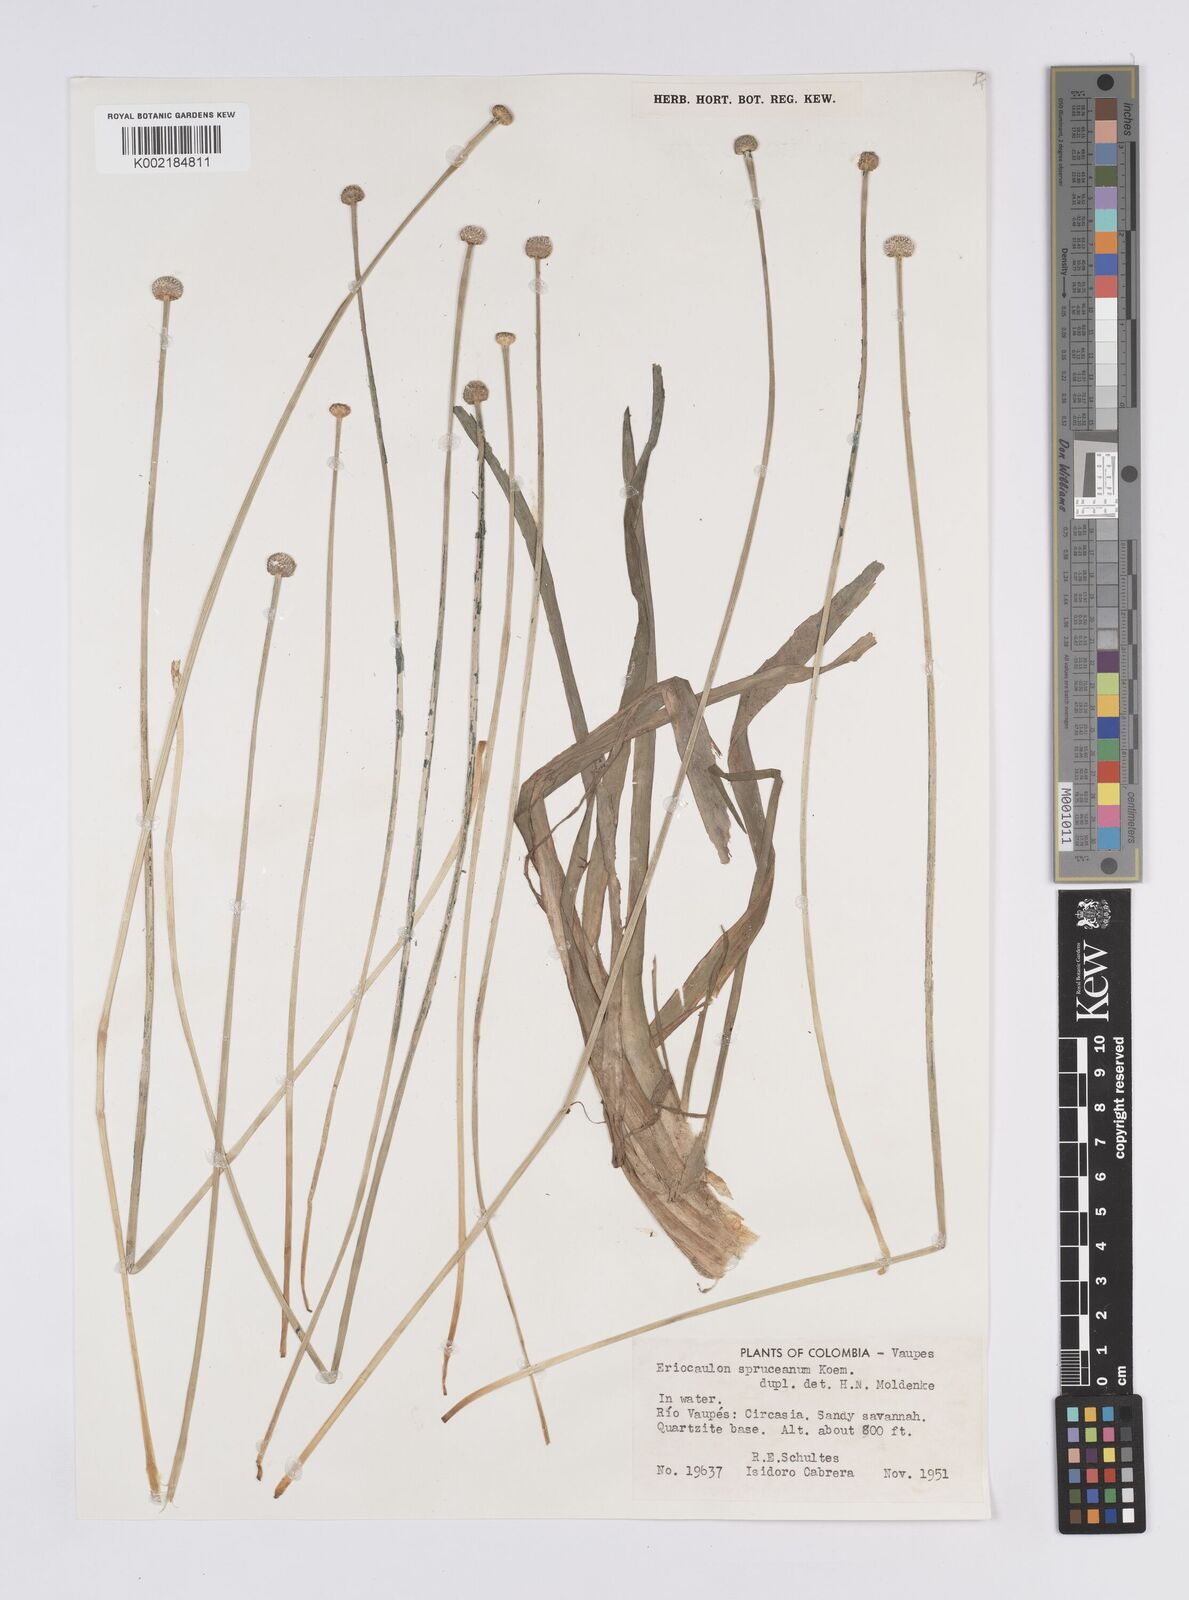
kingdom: Plantae
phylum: Tracheophyta
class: Liliopsida
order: Poales
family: Eriocaulaceae
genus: Eriocaulon
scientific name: Eriocaulon spruceanum
